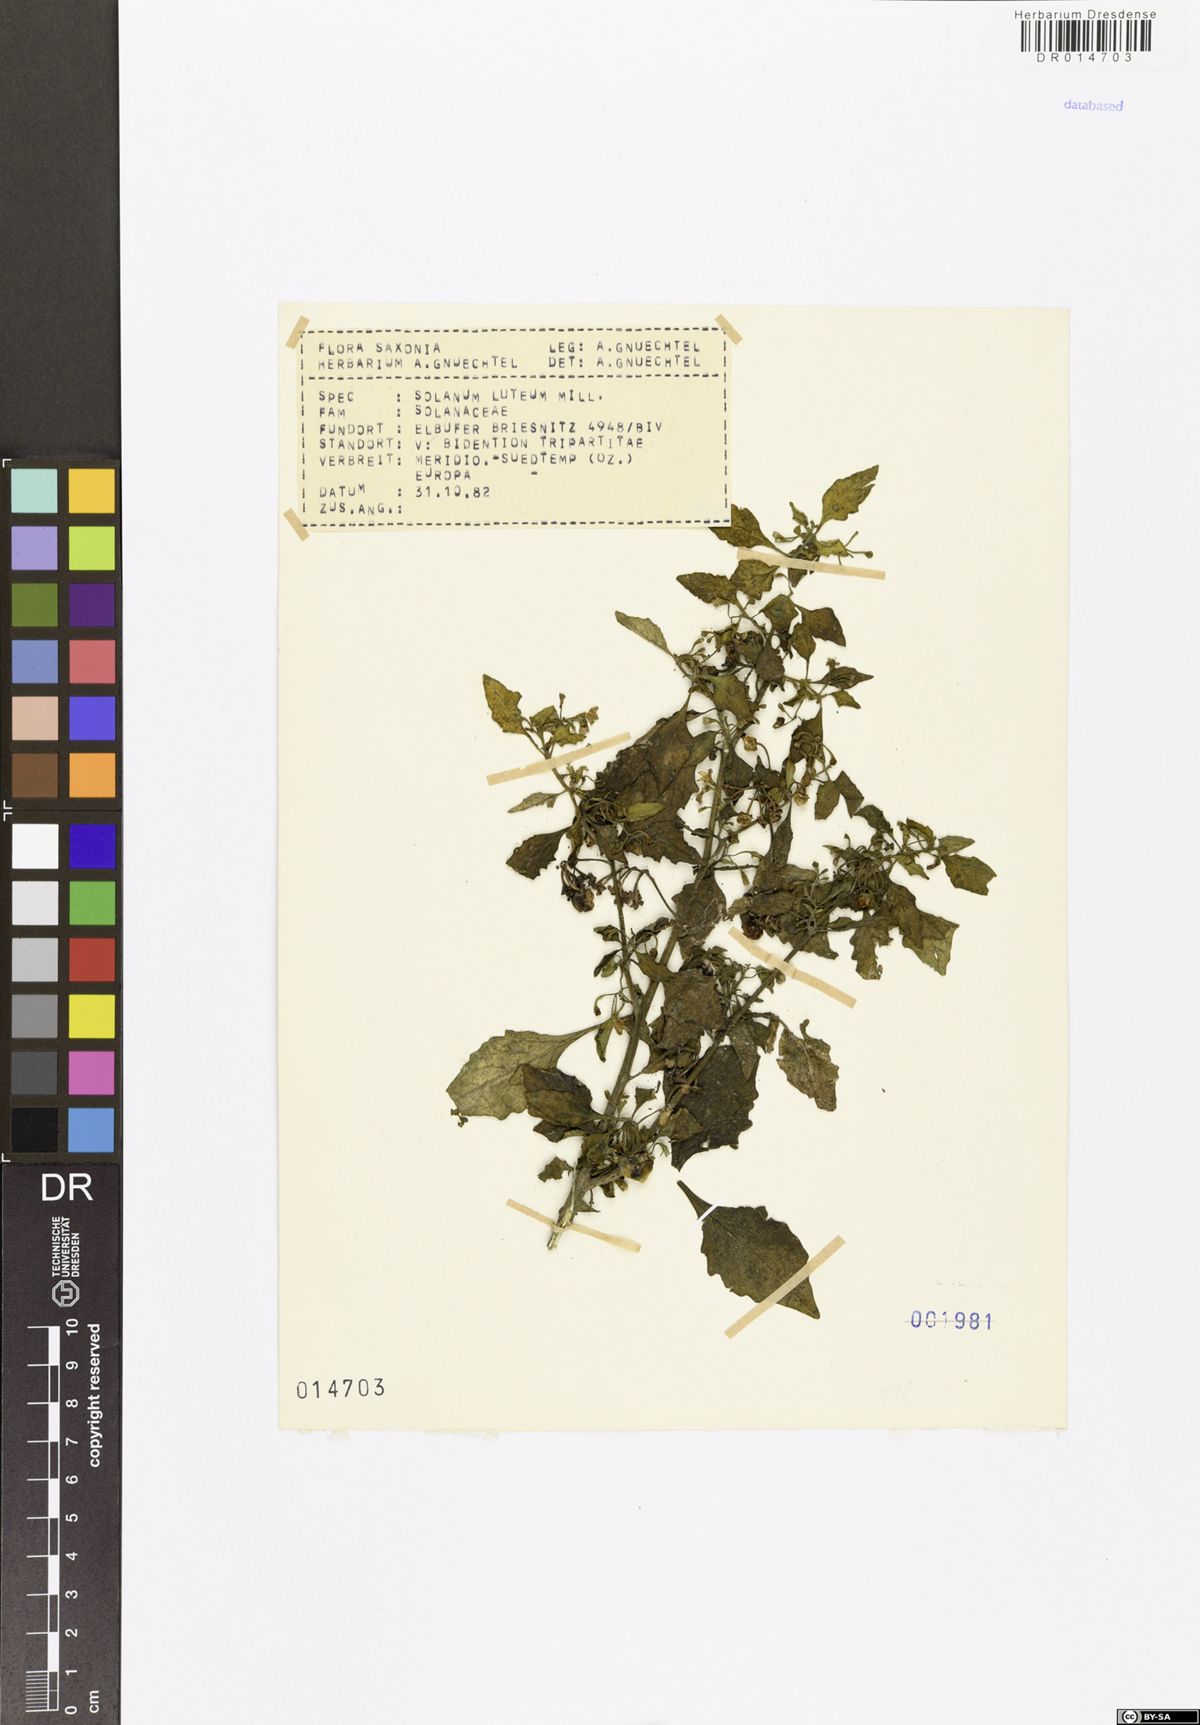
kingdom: Plantae
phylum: Tracheophyta
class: Magnoliopsida
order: Solanales
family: Solanaceae
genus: Solanum
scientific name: Solanum villosum
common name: Red nightshade
